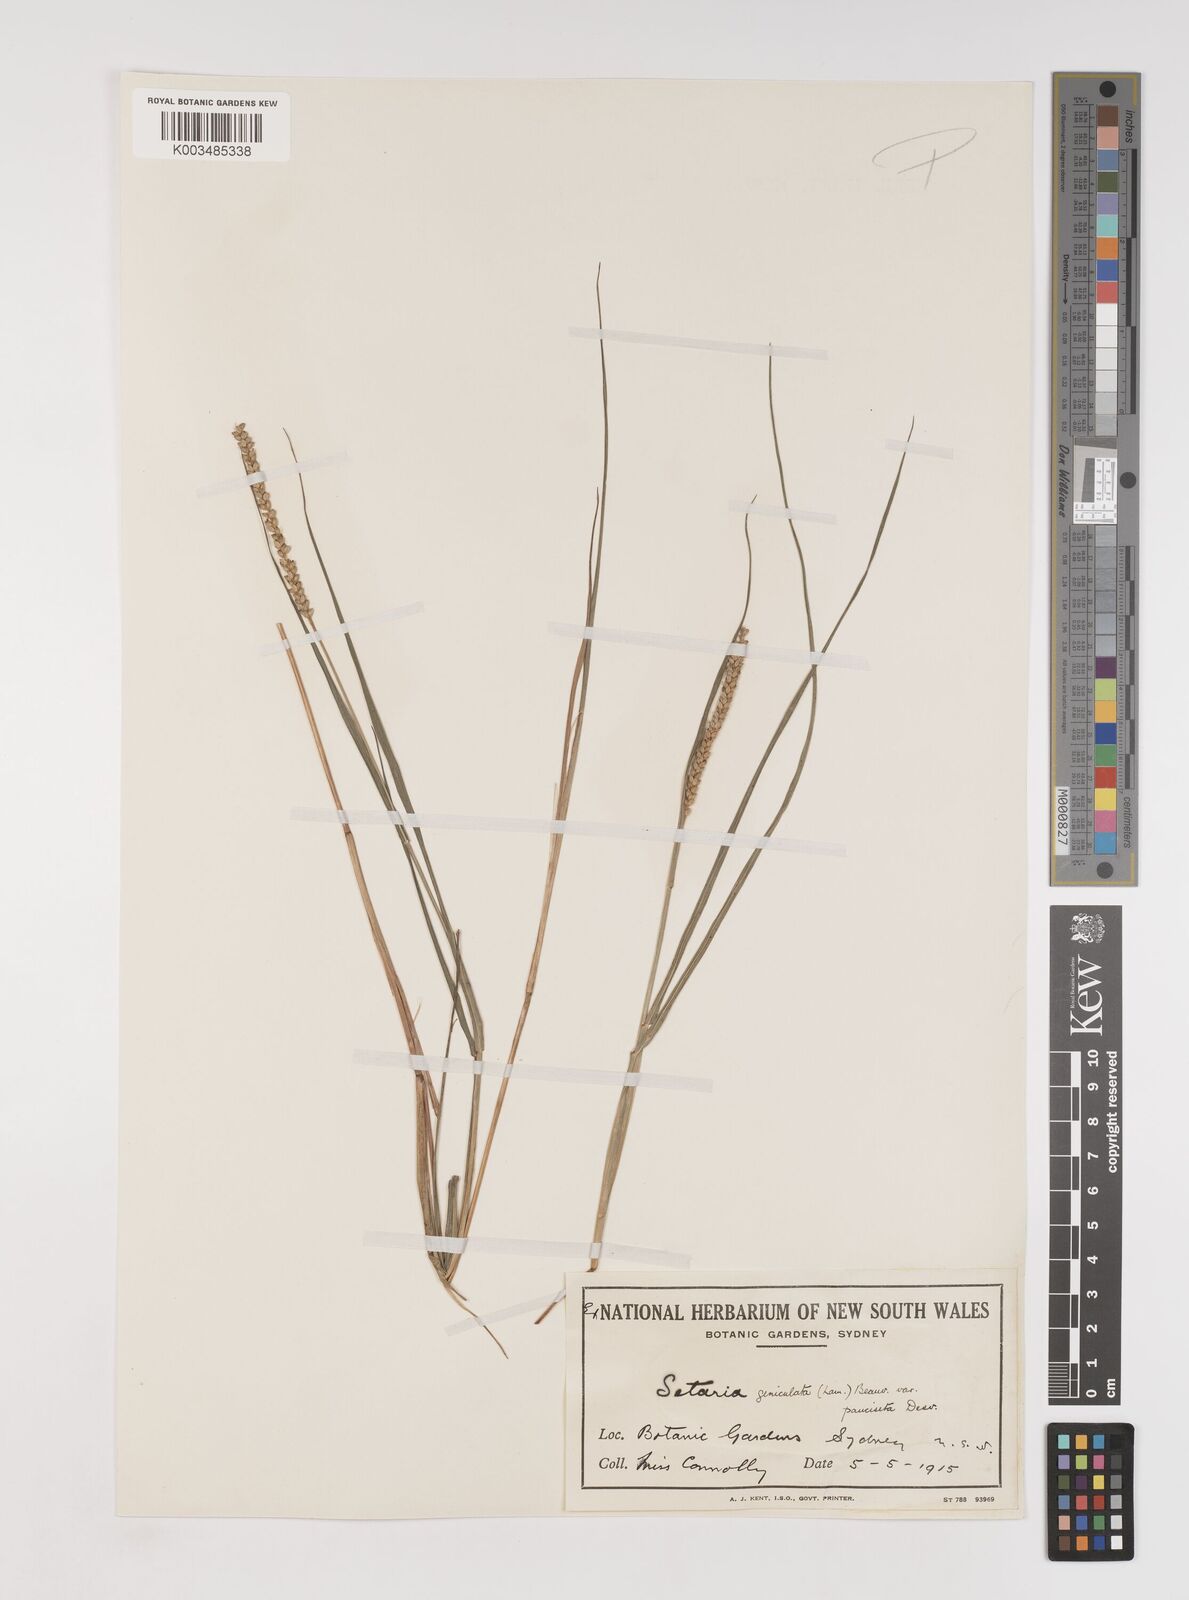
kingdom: Plantae
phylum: Tracheophyta
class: Liliopsida
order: Poales
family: Poaceae
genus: Setaria
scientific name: Setaria parviflora
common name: Knotroot bristle-grass
